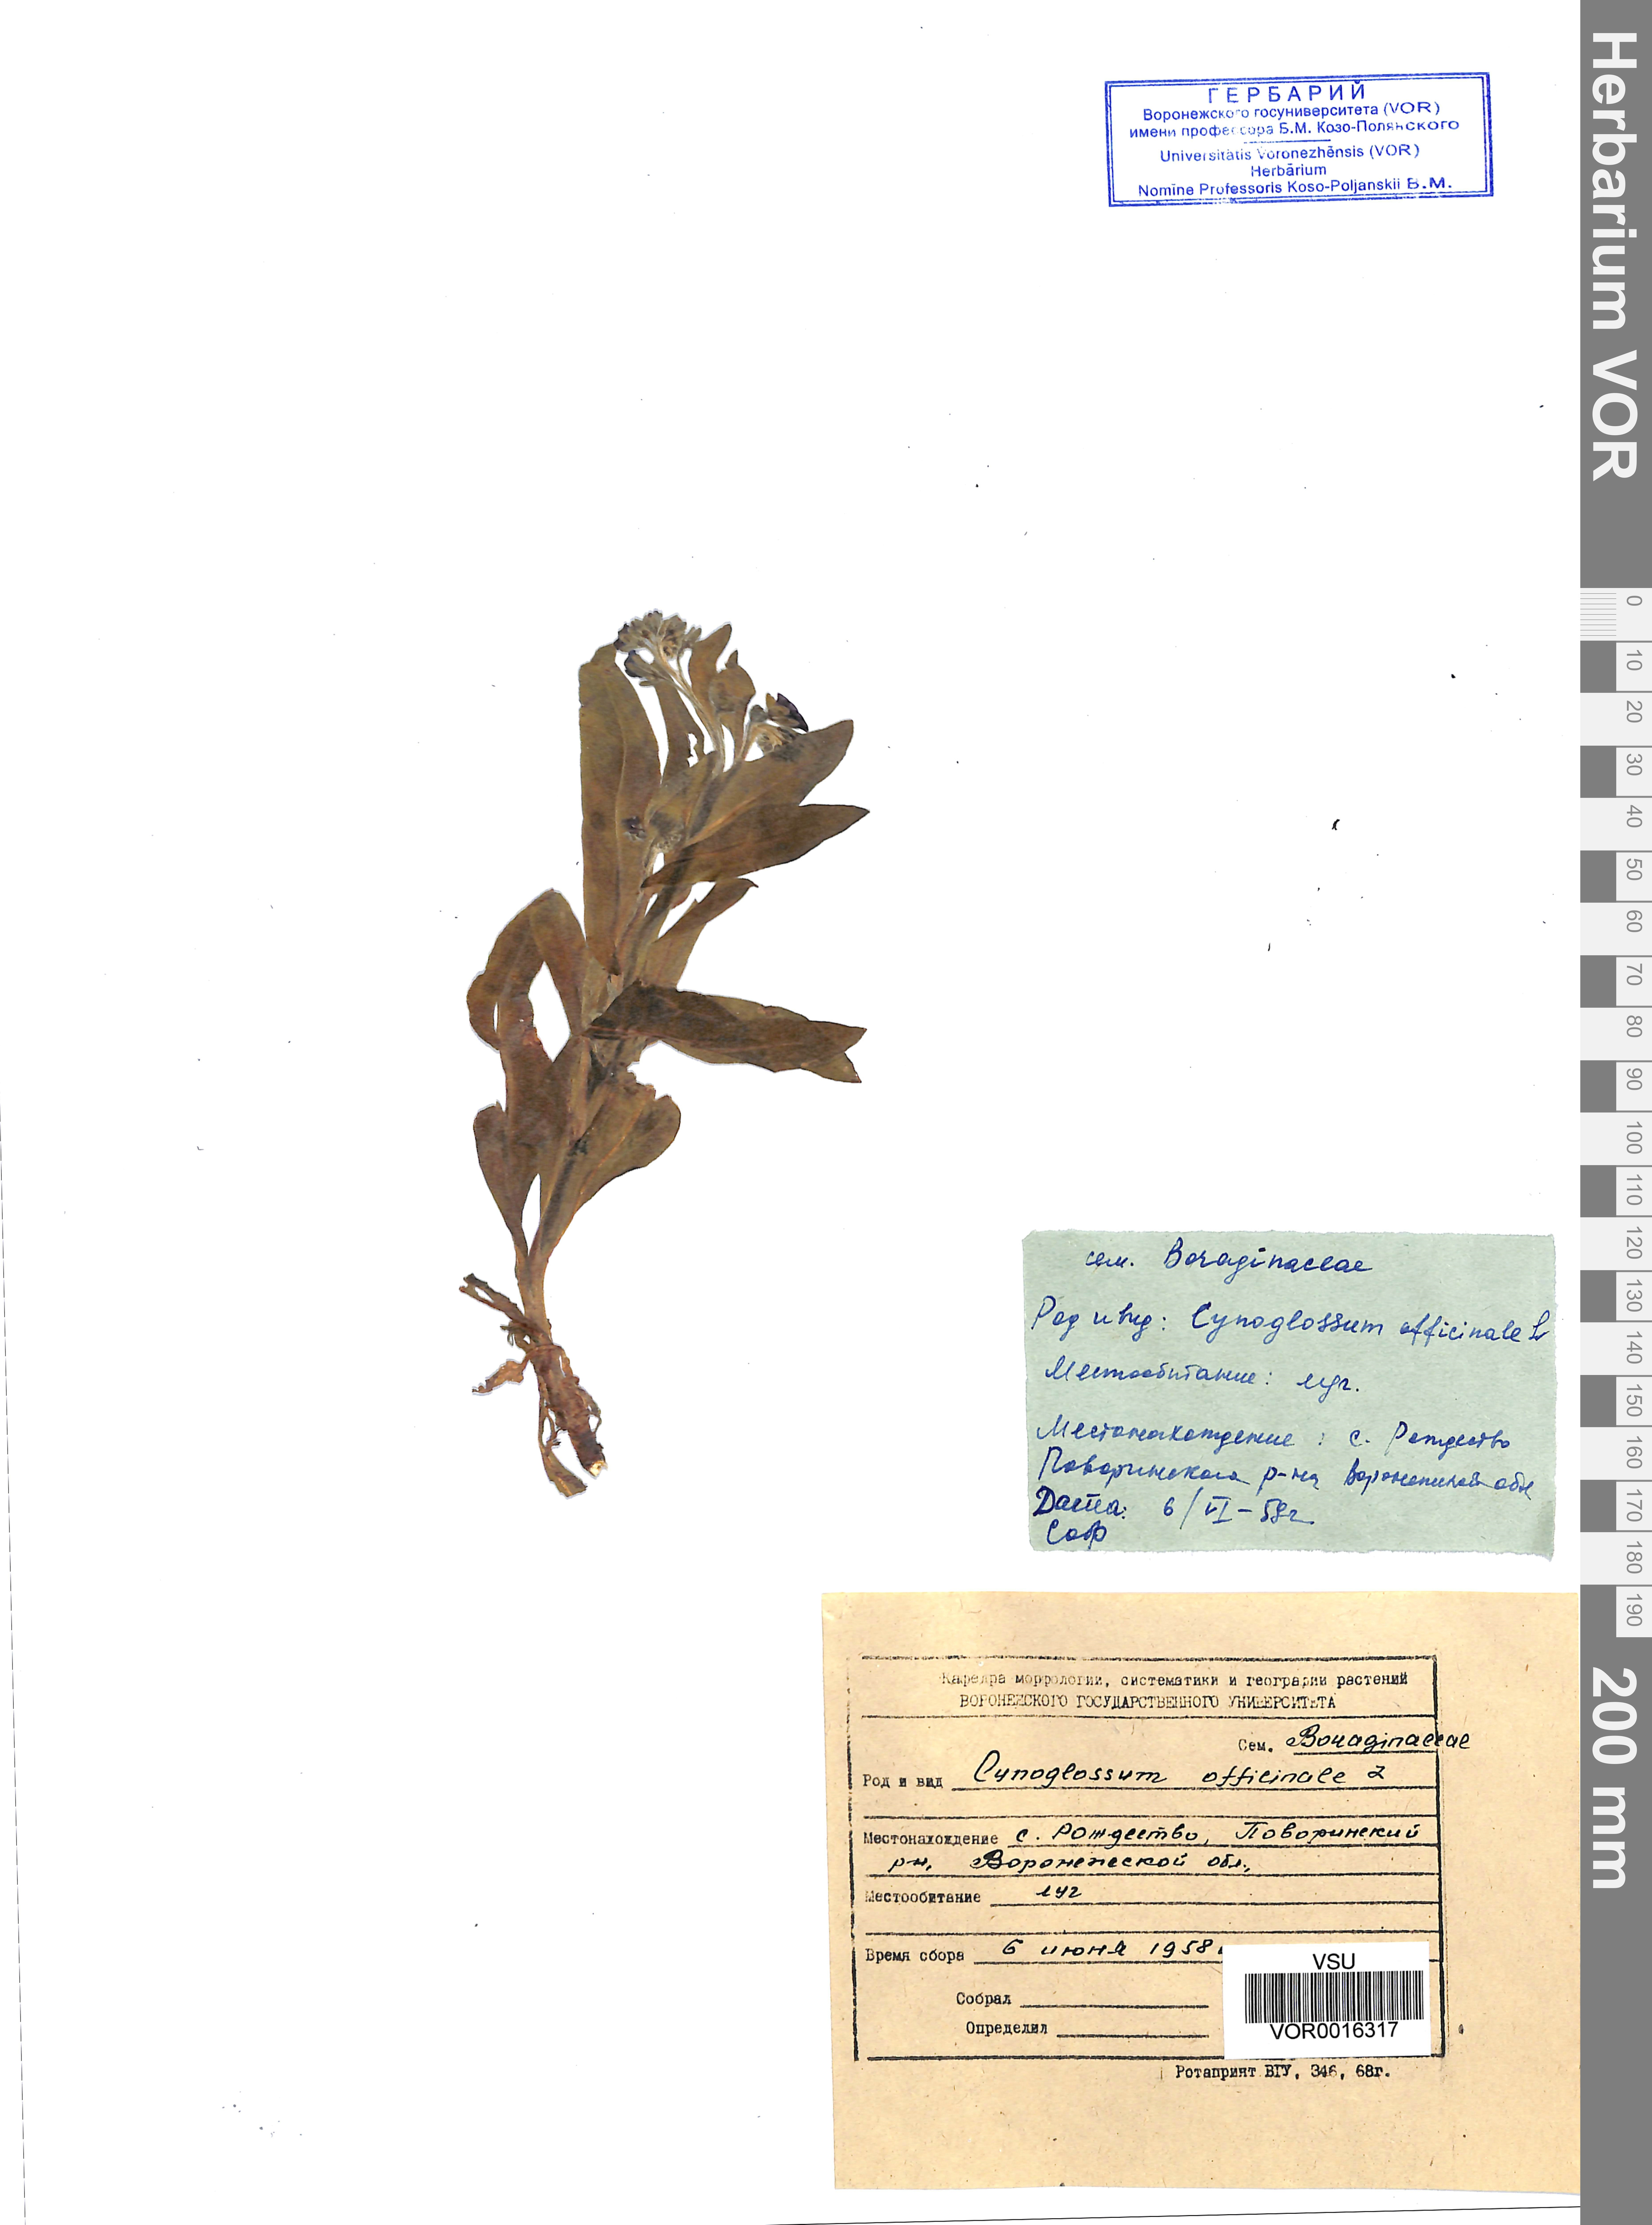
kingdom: Plantae
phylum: Tracheophyta
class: Magnoliopsida
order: Boraginales
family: Boraginaceae
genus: Cynoglossum
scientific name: Cynoglossum officinale
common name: Hound's-tongue
